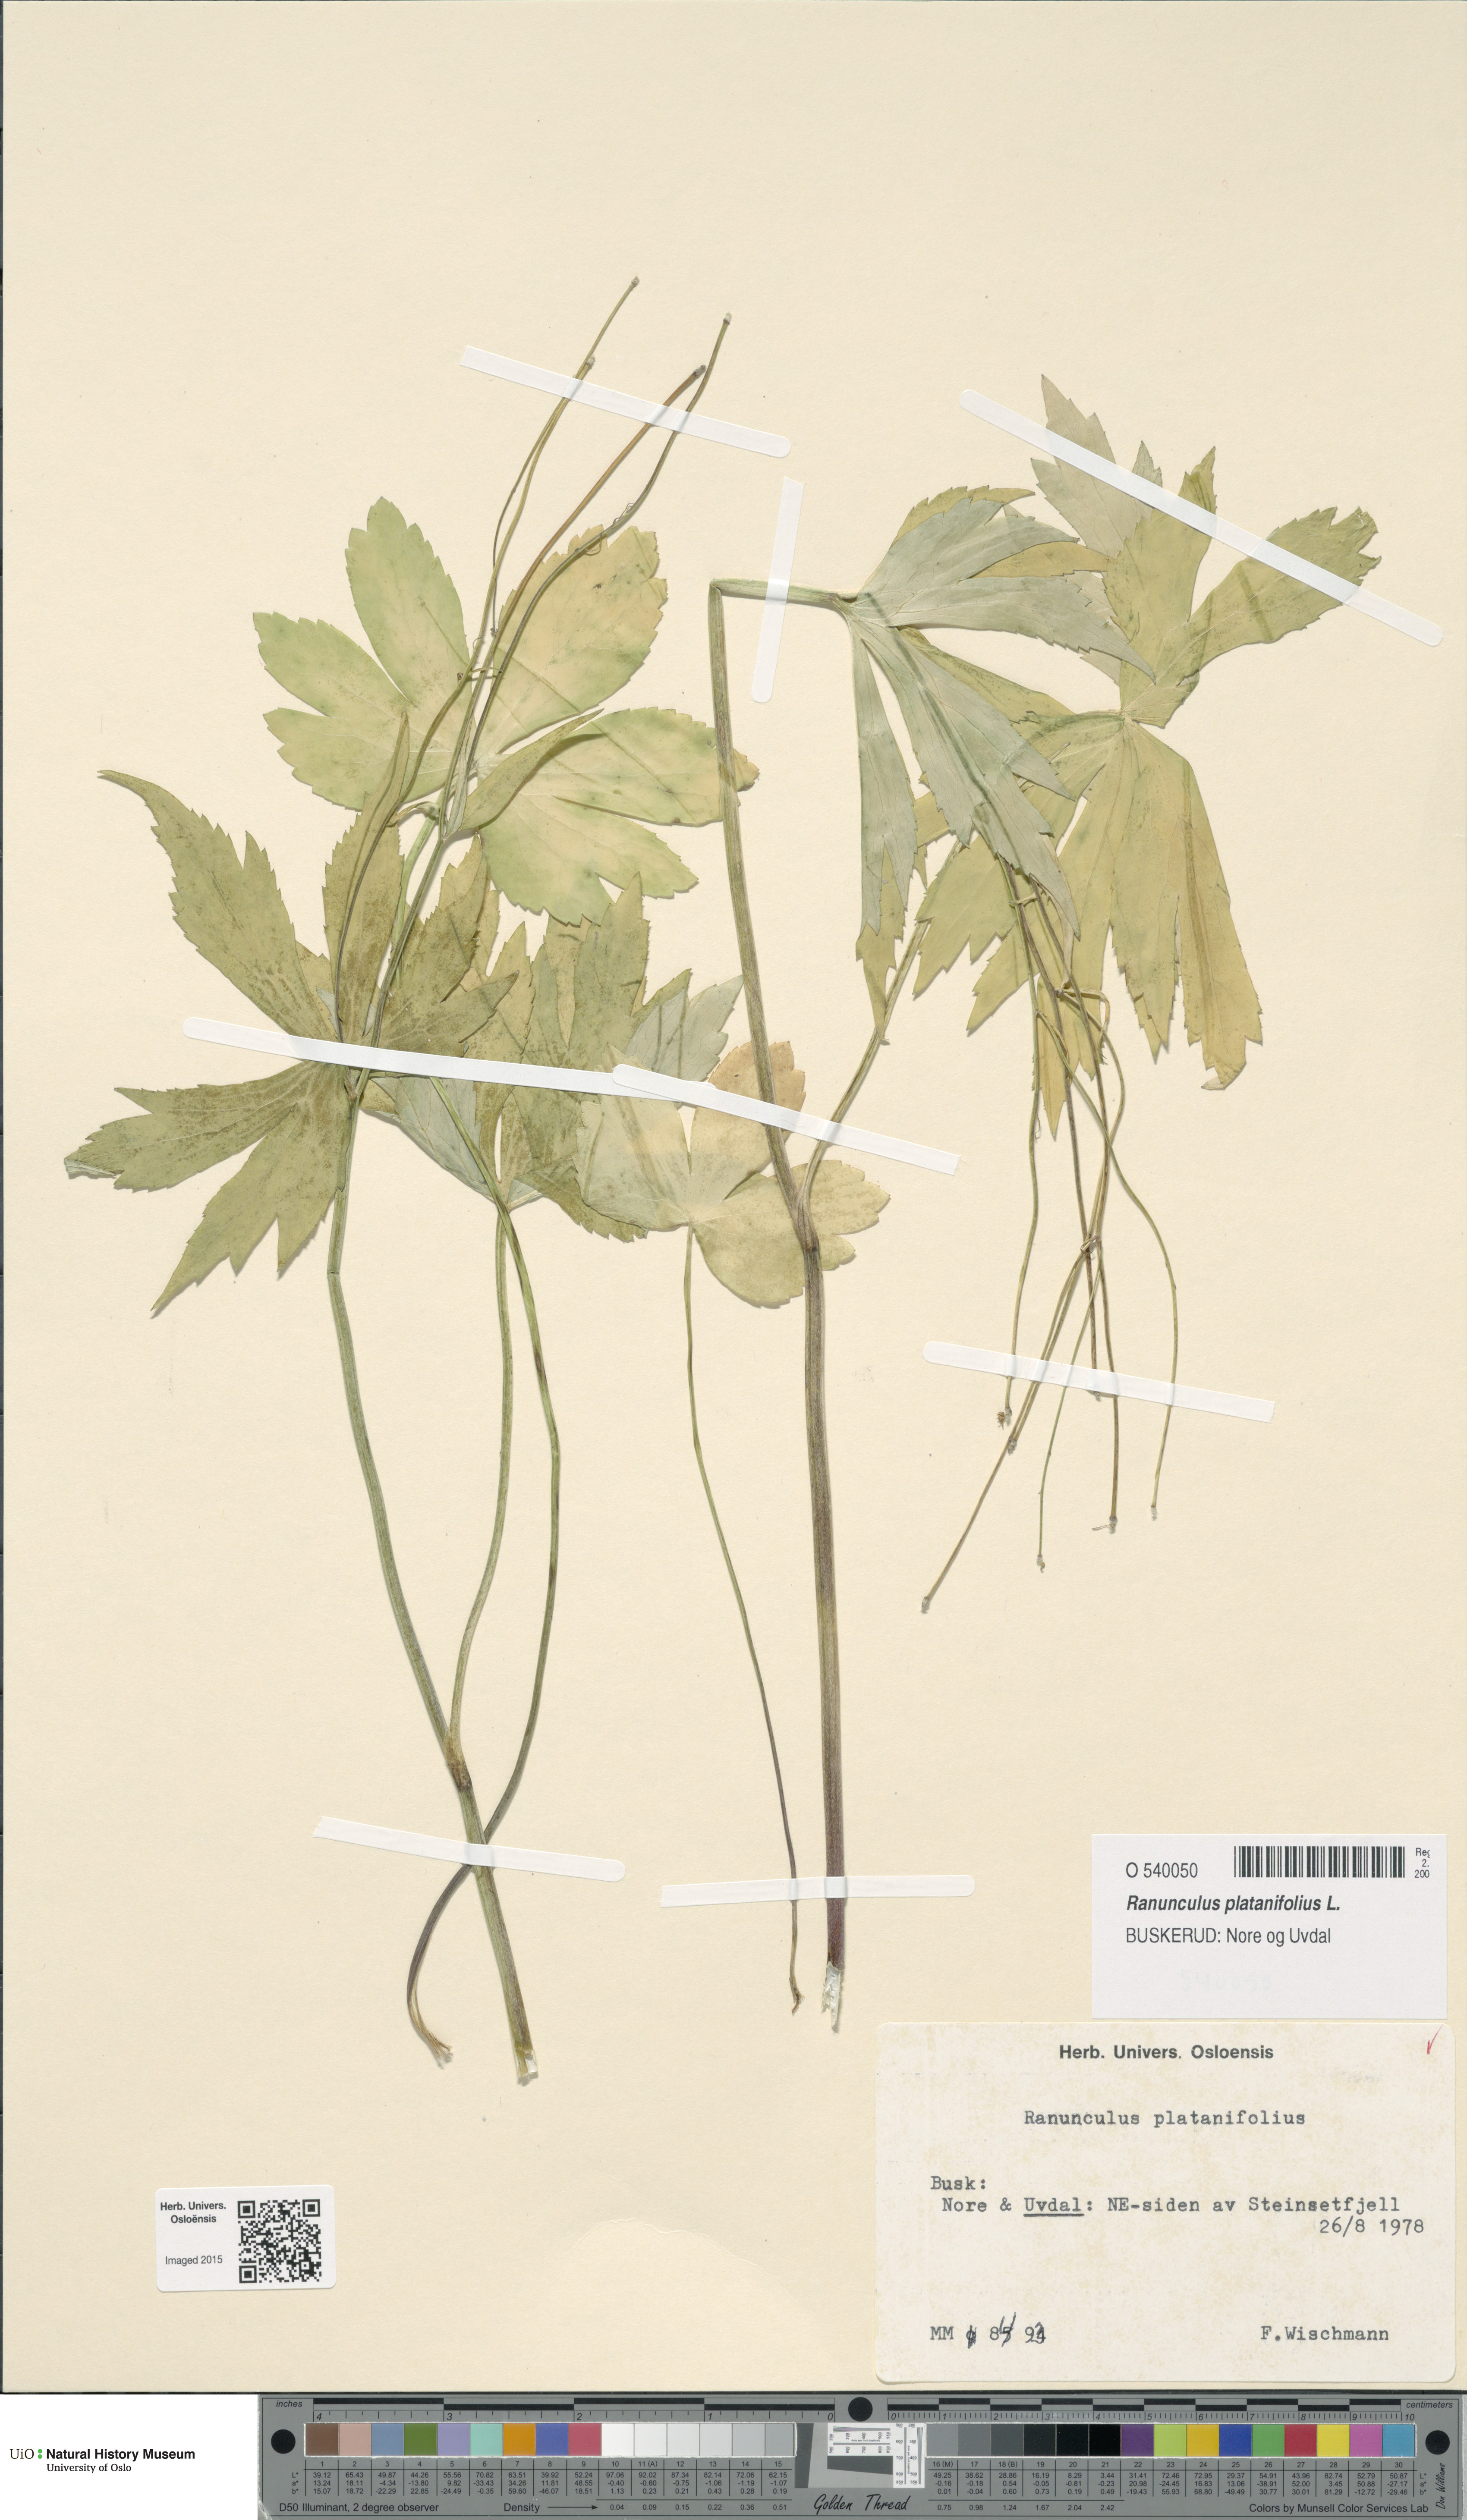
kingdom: Plantae
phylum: Tracheophyta
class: Magnoliopsida
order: Ranunculales
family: Ranunculaceae
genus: Ranunculus
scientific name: Ranunculus platanifolius
